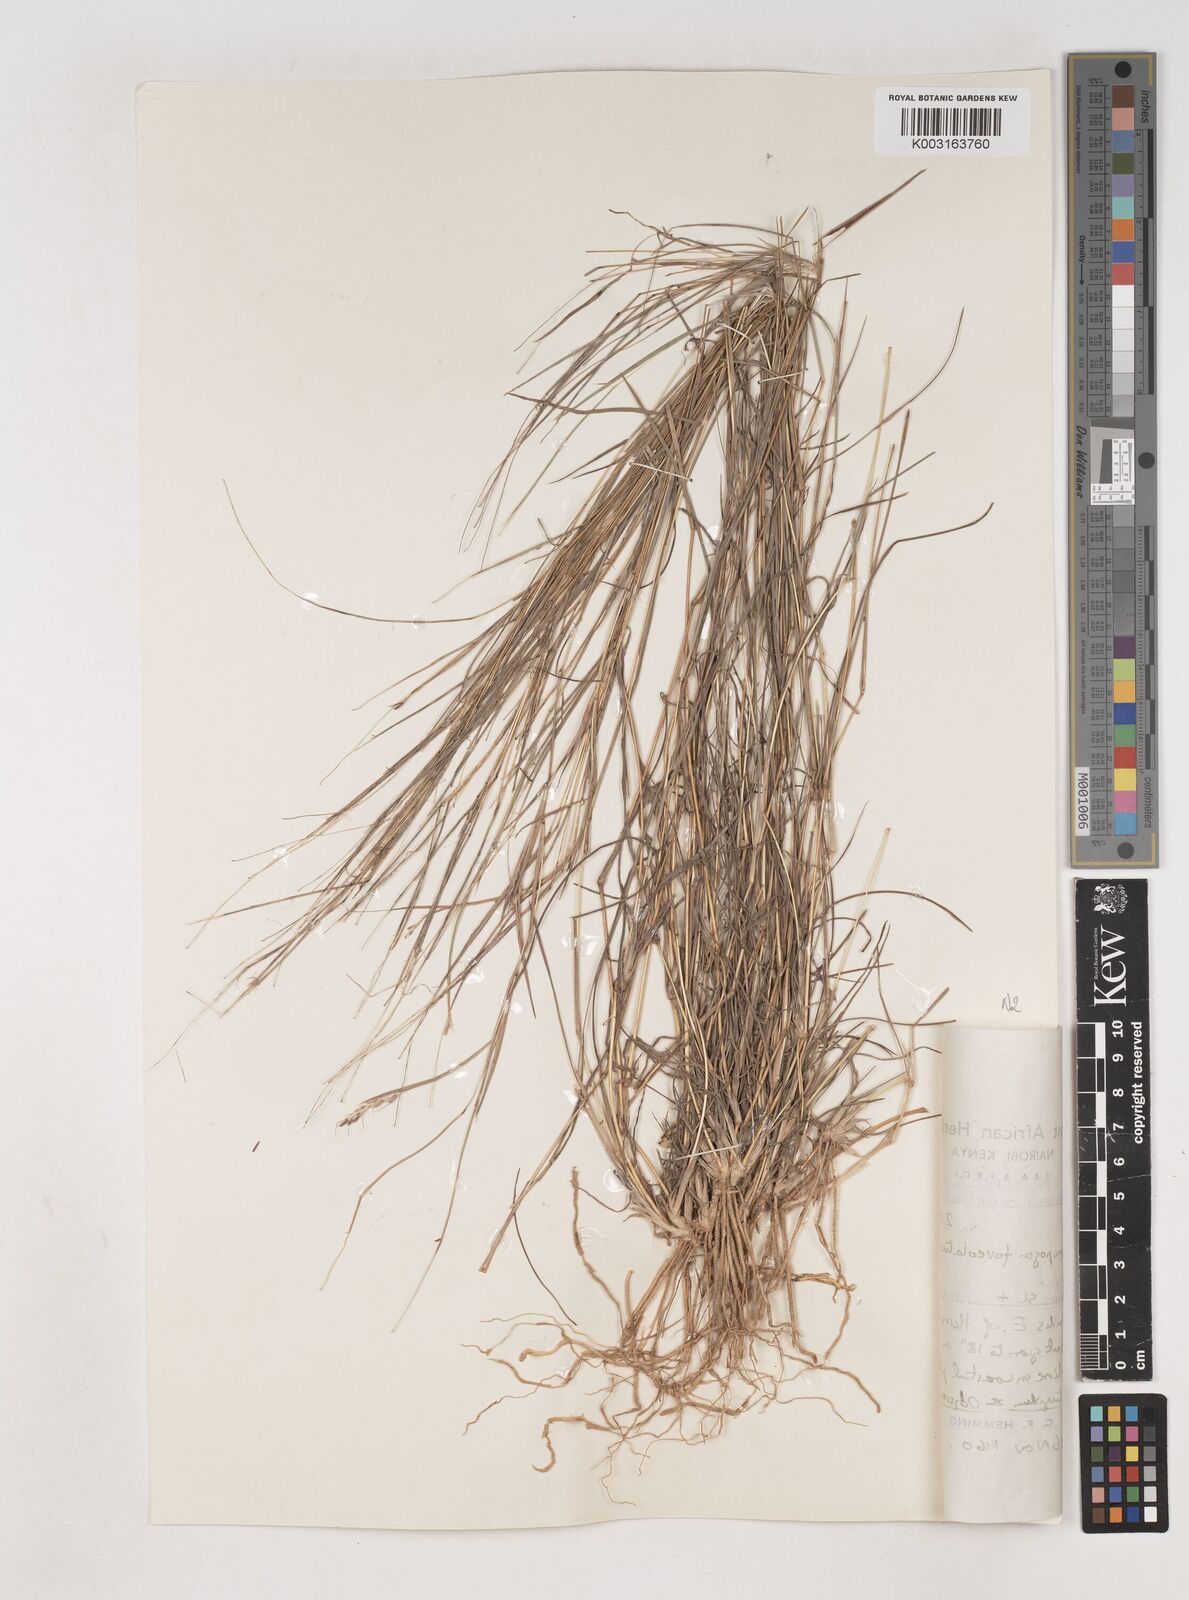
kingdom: Plantae
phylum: Tracheophyta
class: Liliopsida
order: Poales
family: Poaceae
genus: Dichanthium
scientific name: Dichanthium foveolatum
